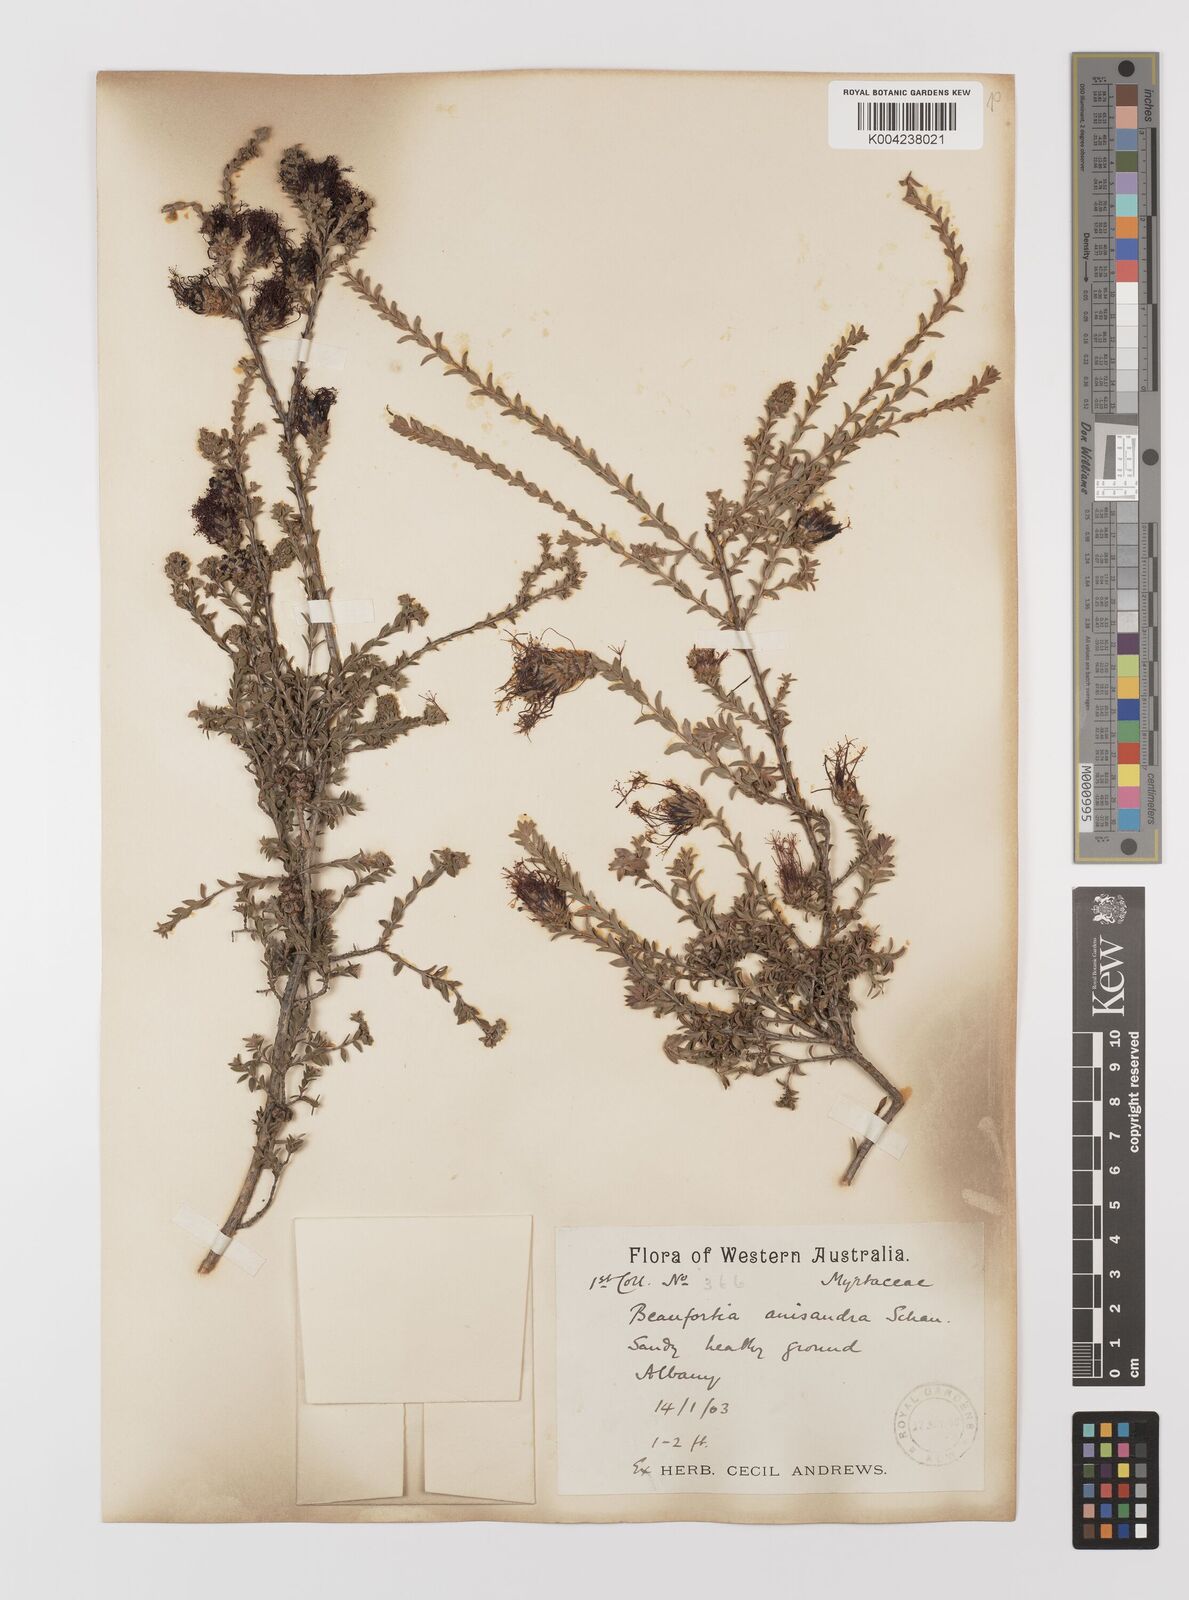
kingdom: Plantae
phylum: Tracheophyta
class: Magnoliopsida
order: Myrtales
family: Myrtaceae
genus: Melaleuca
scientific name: Melaleuca anisandra
